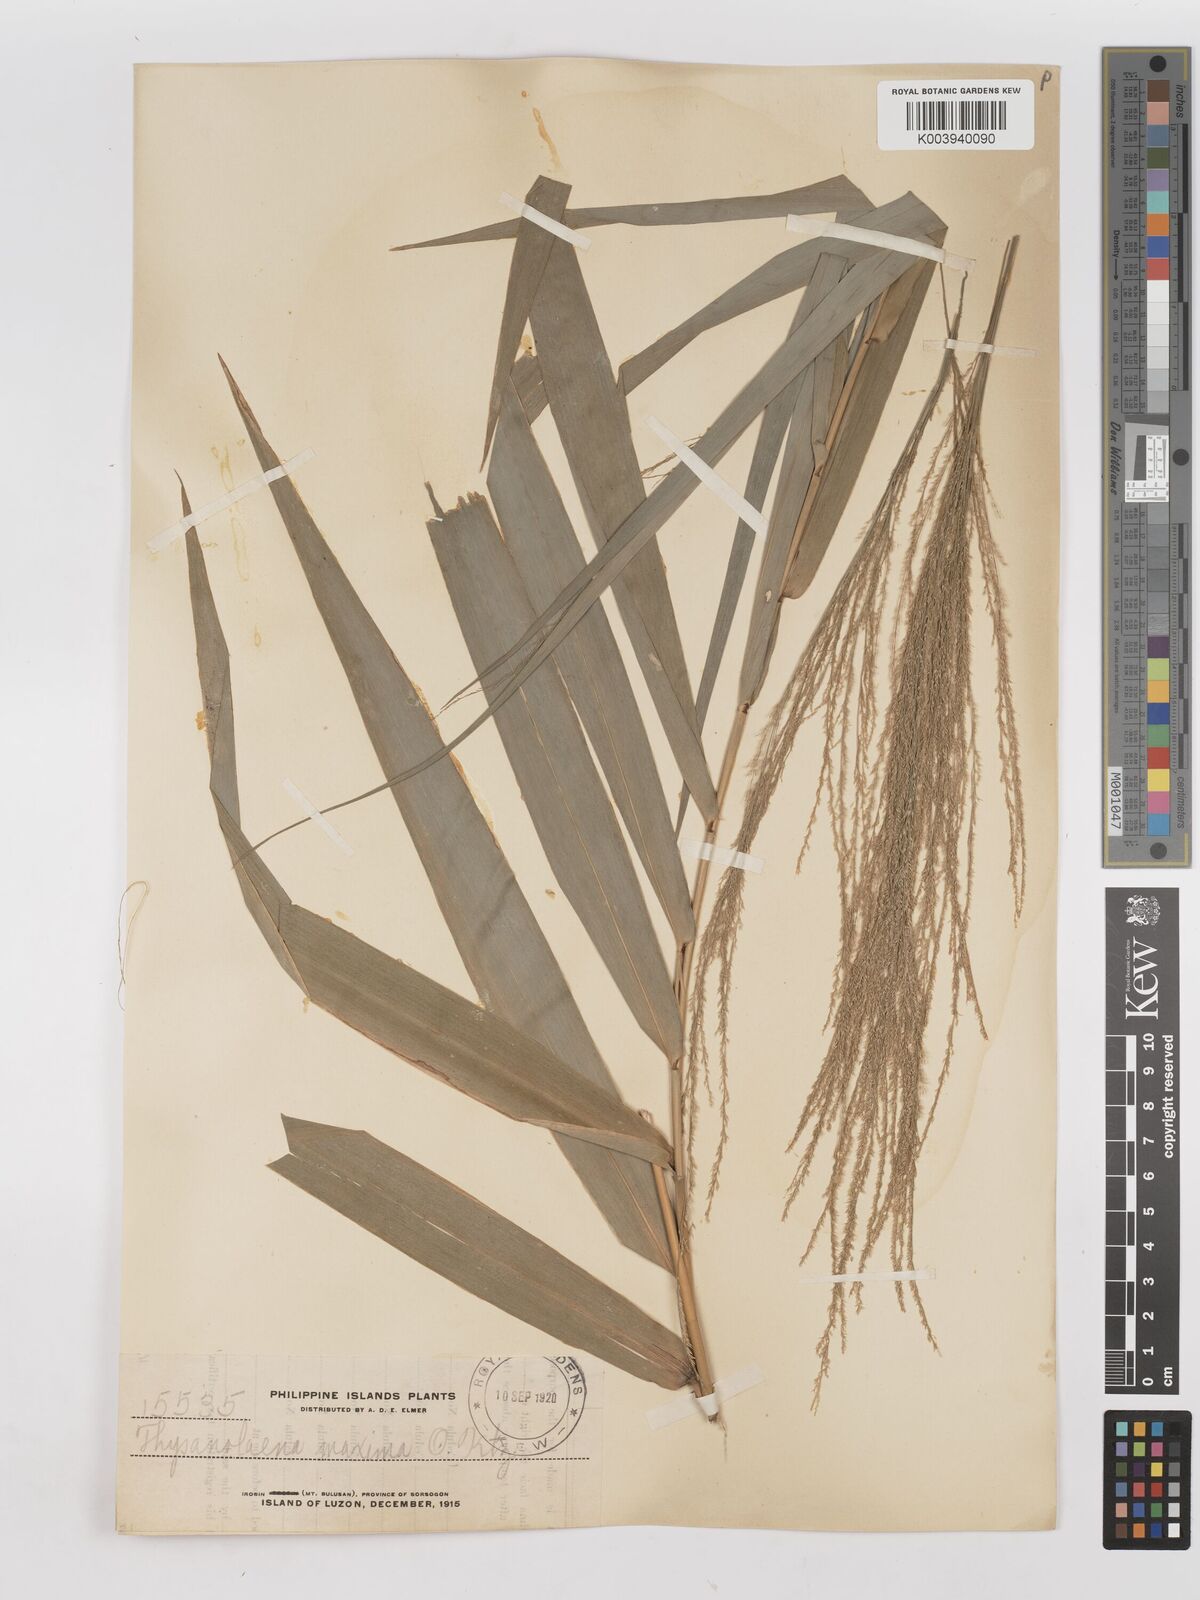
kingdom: Plantae
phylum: Tracheophyta
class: Liliopsida
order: Poales
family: Poaceae
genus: Thysanolaena
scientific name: Thysanolaena latifolia
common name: Tiger grass
